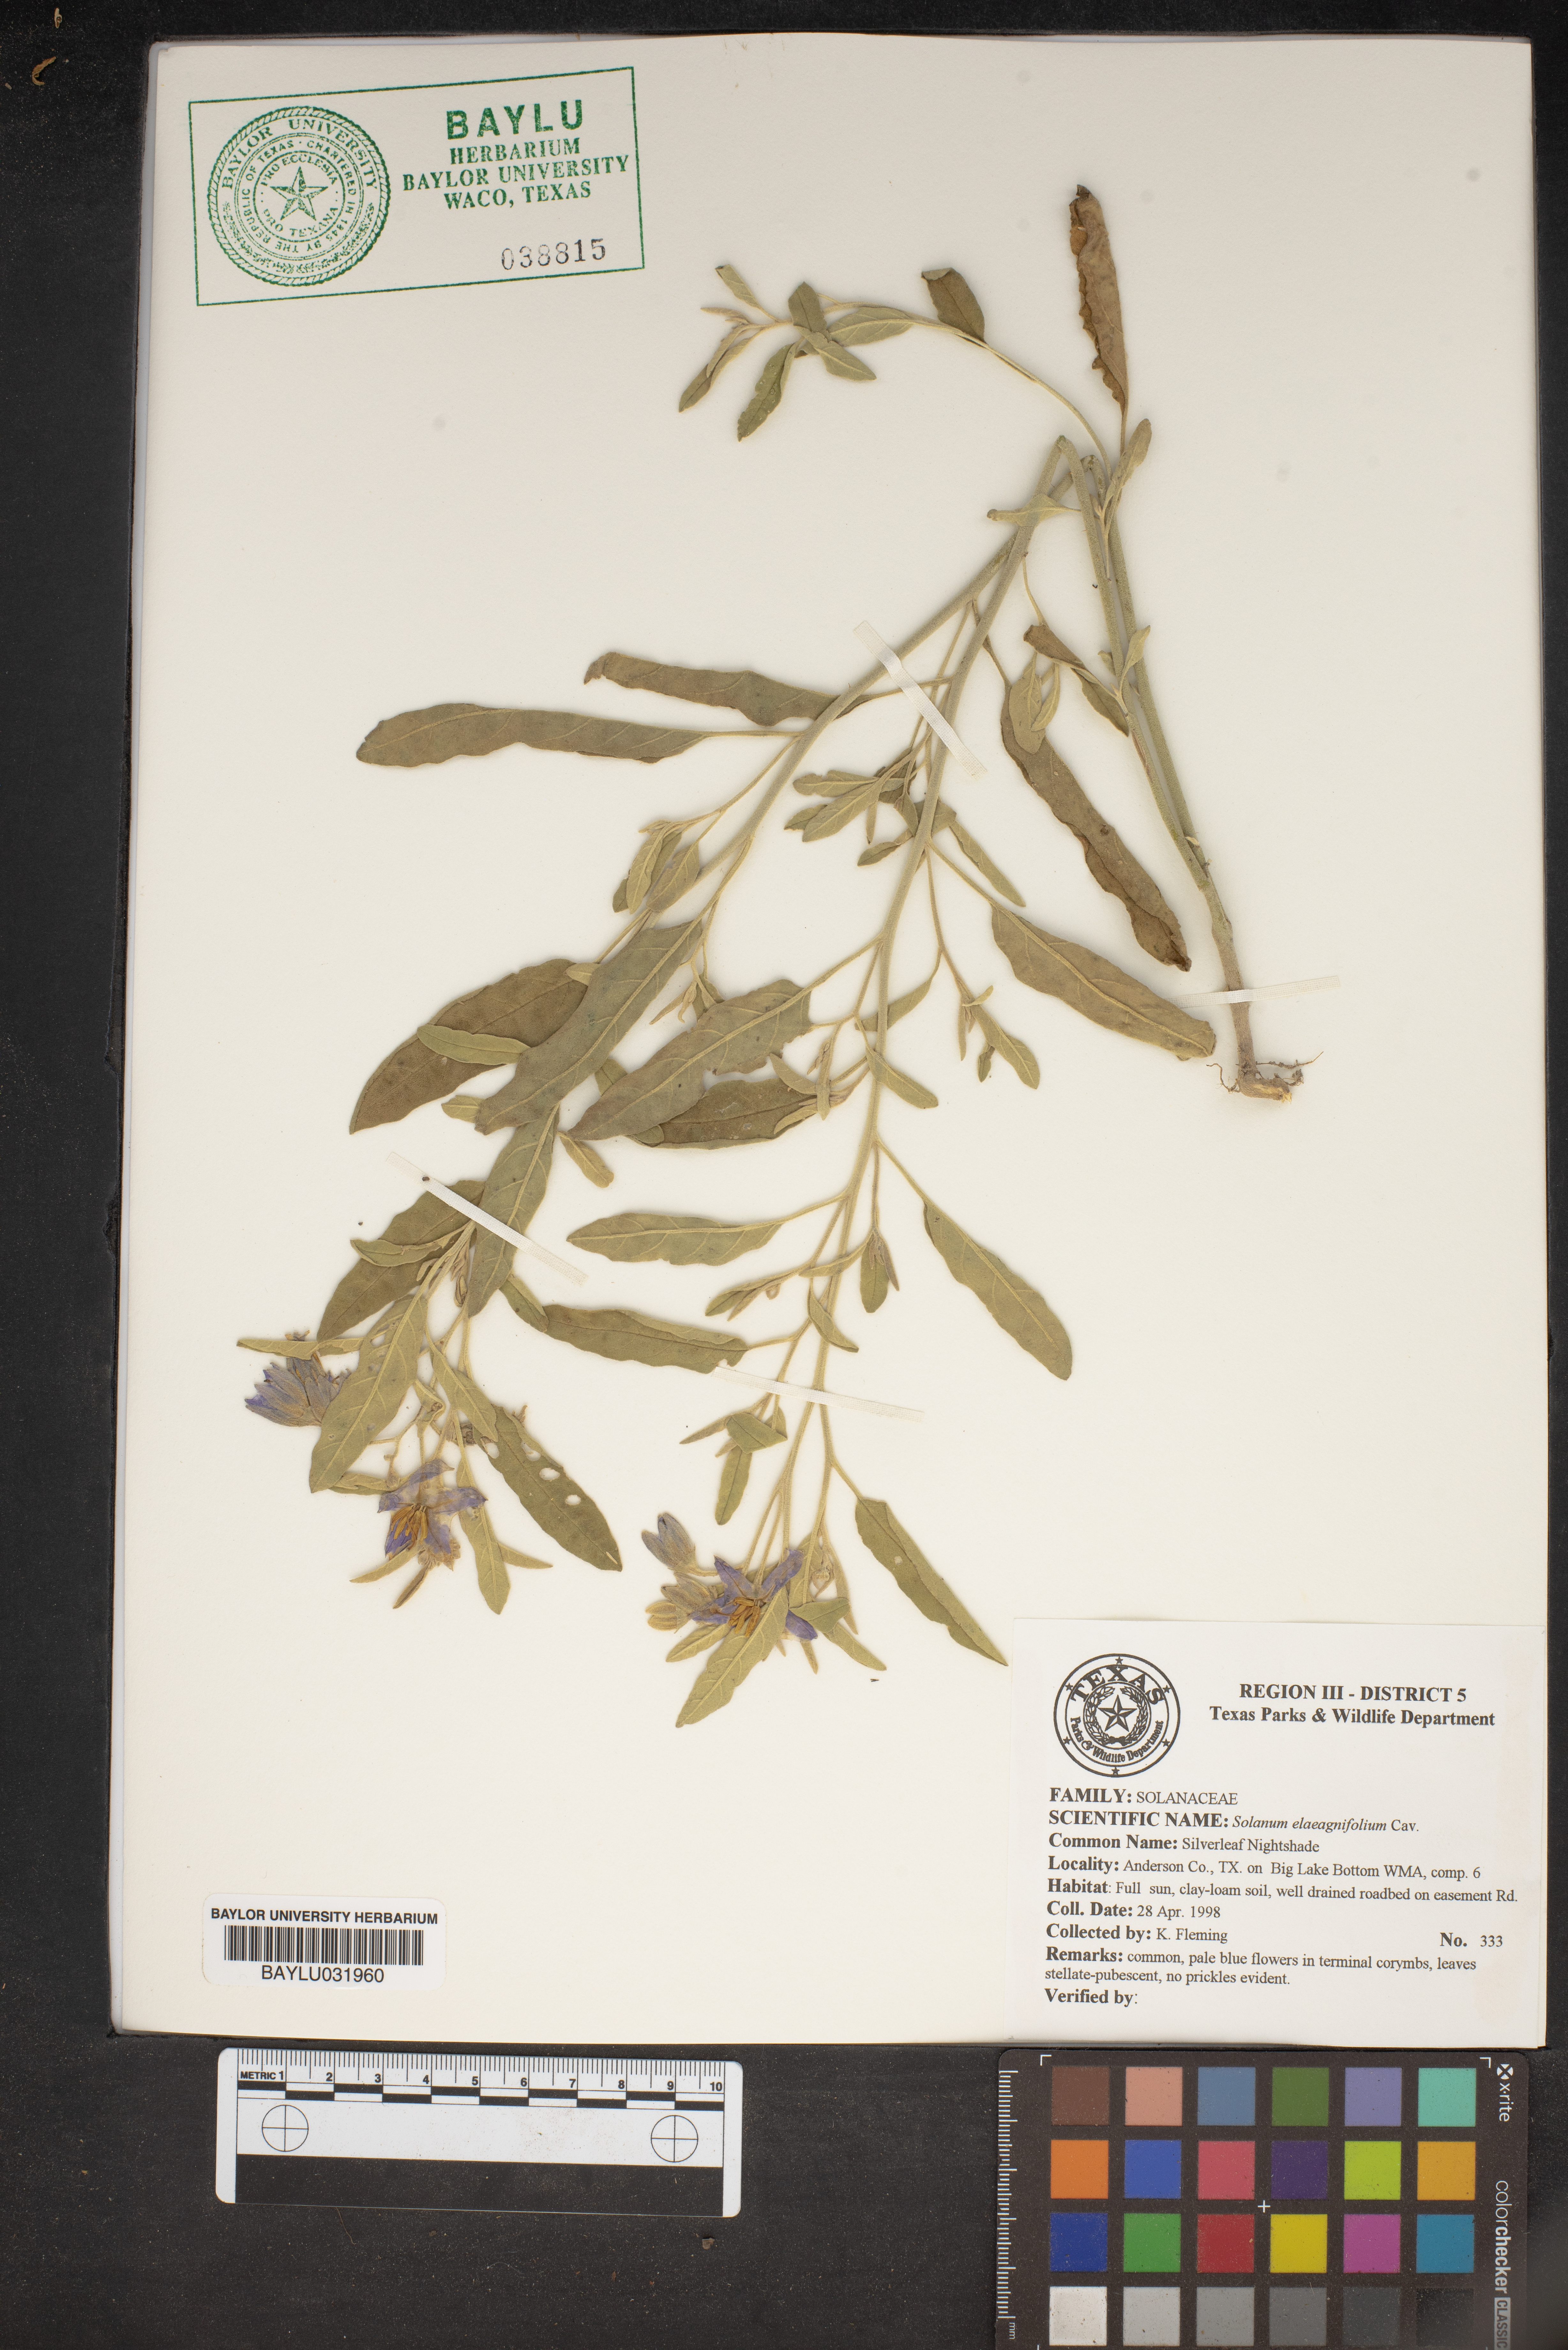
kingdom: Plantae
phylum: Tracheophyta
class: Magnoliopsida
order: Solanales
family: Solanaceae
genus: Solanum
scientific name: Solanum elaeagnifolium
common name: Silverleaf nightshade
